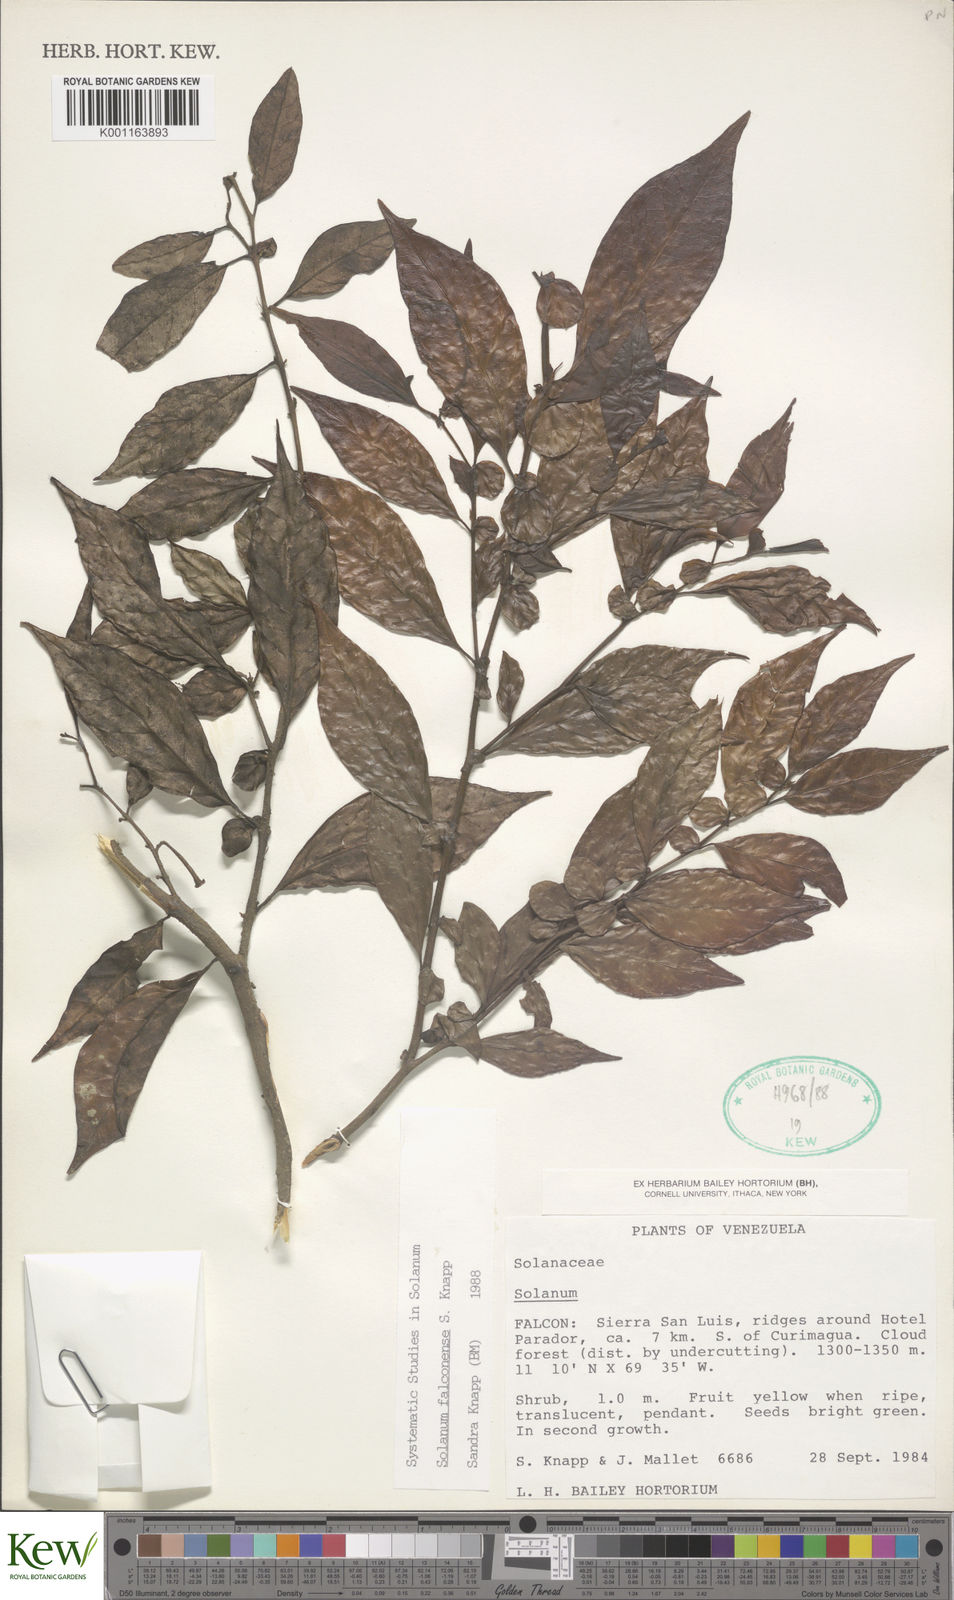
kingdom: Plantae
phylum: Tracheophyta
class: Magnoliopsida
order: Solanales
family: Solanaceae
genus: Solanum
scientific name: Solanum falconense
